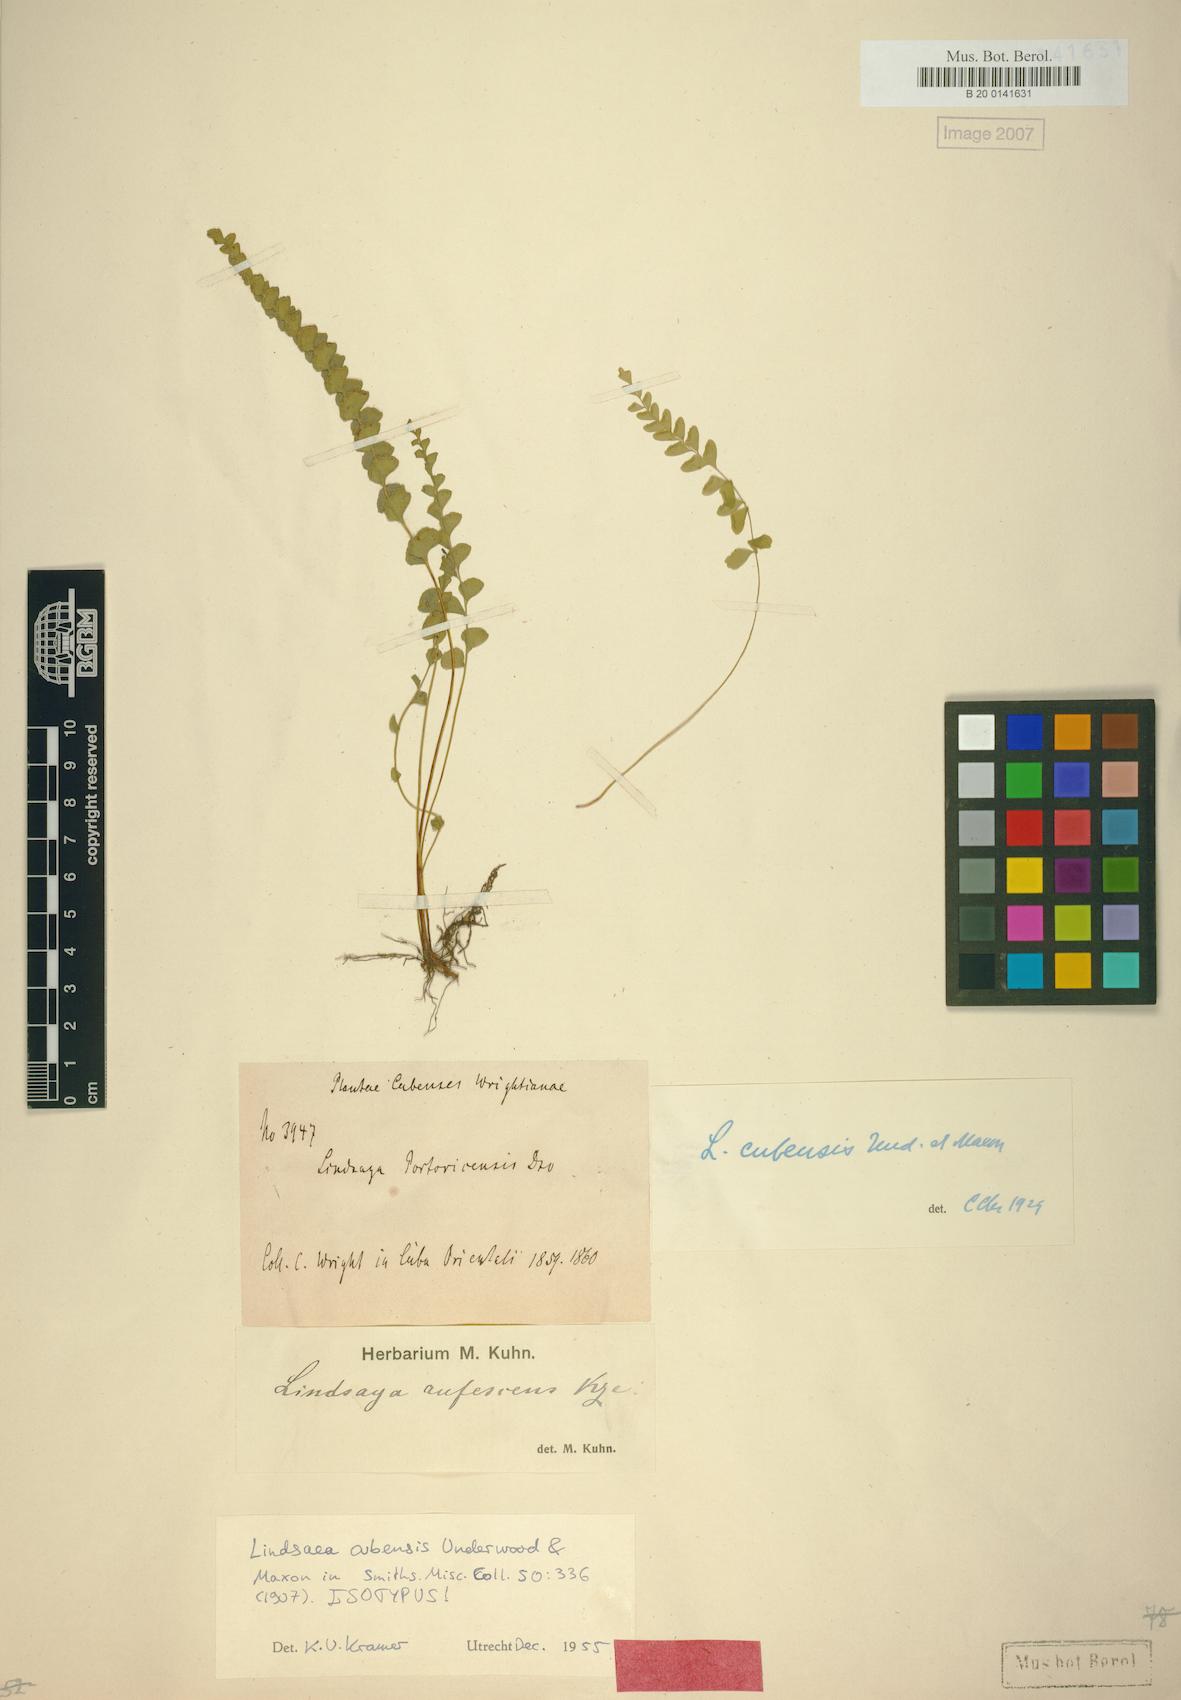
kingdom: Plantae
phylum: Tracheophyta
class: Polypodiopsida
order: Polypodiales
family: Lindsaeaceae
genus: Lindsaea
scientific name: Lindsaea cubensis
